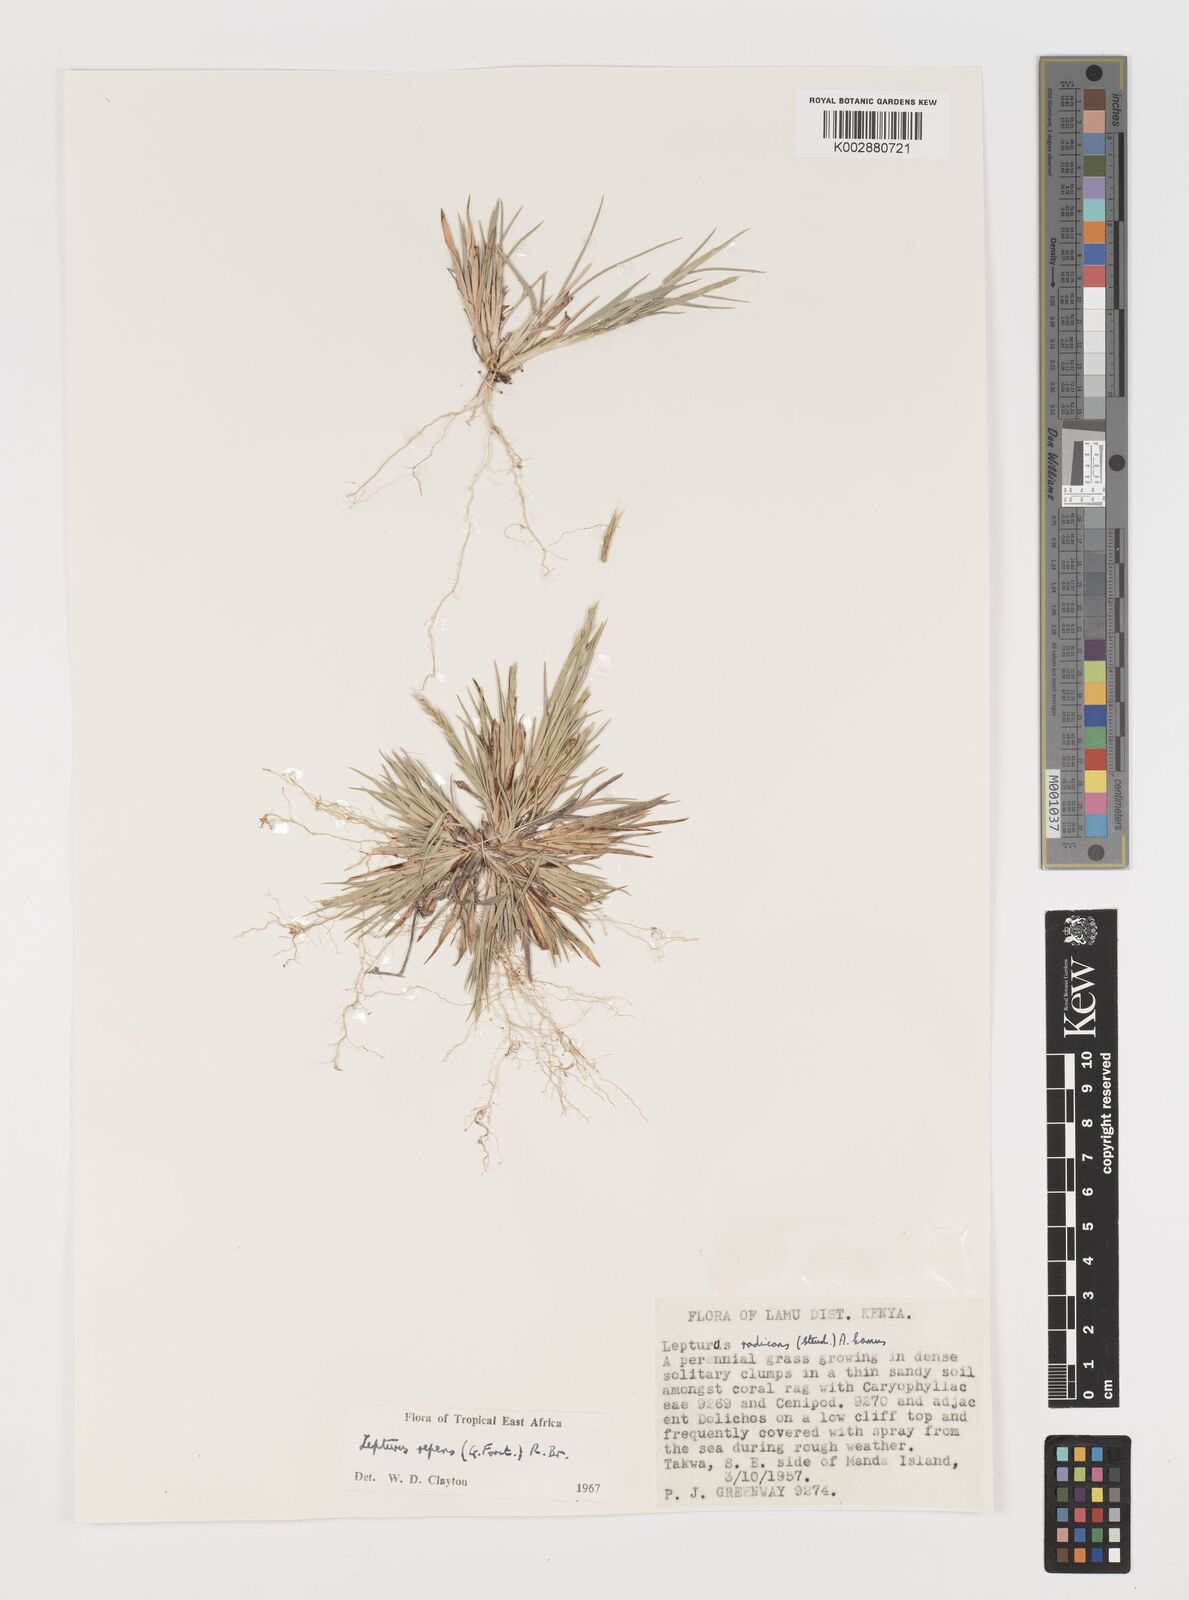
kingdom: Plantae
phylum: Tracheophyta
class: Liliopsida
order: Poales
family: Poaceae
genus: Lepturus
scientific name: Lepturus repens
